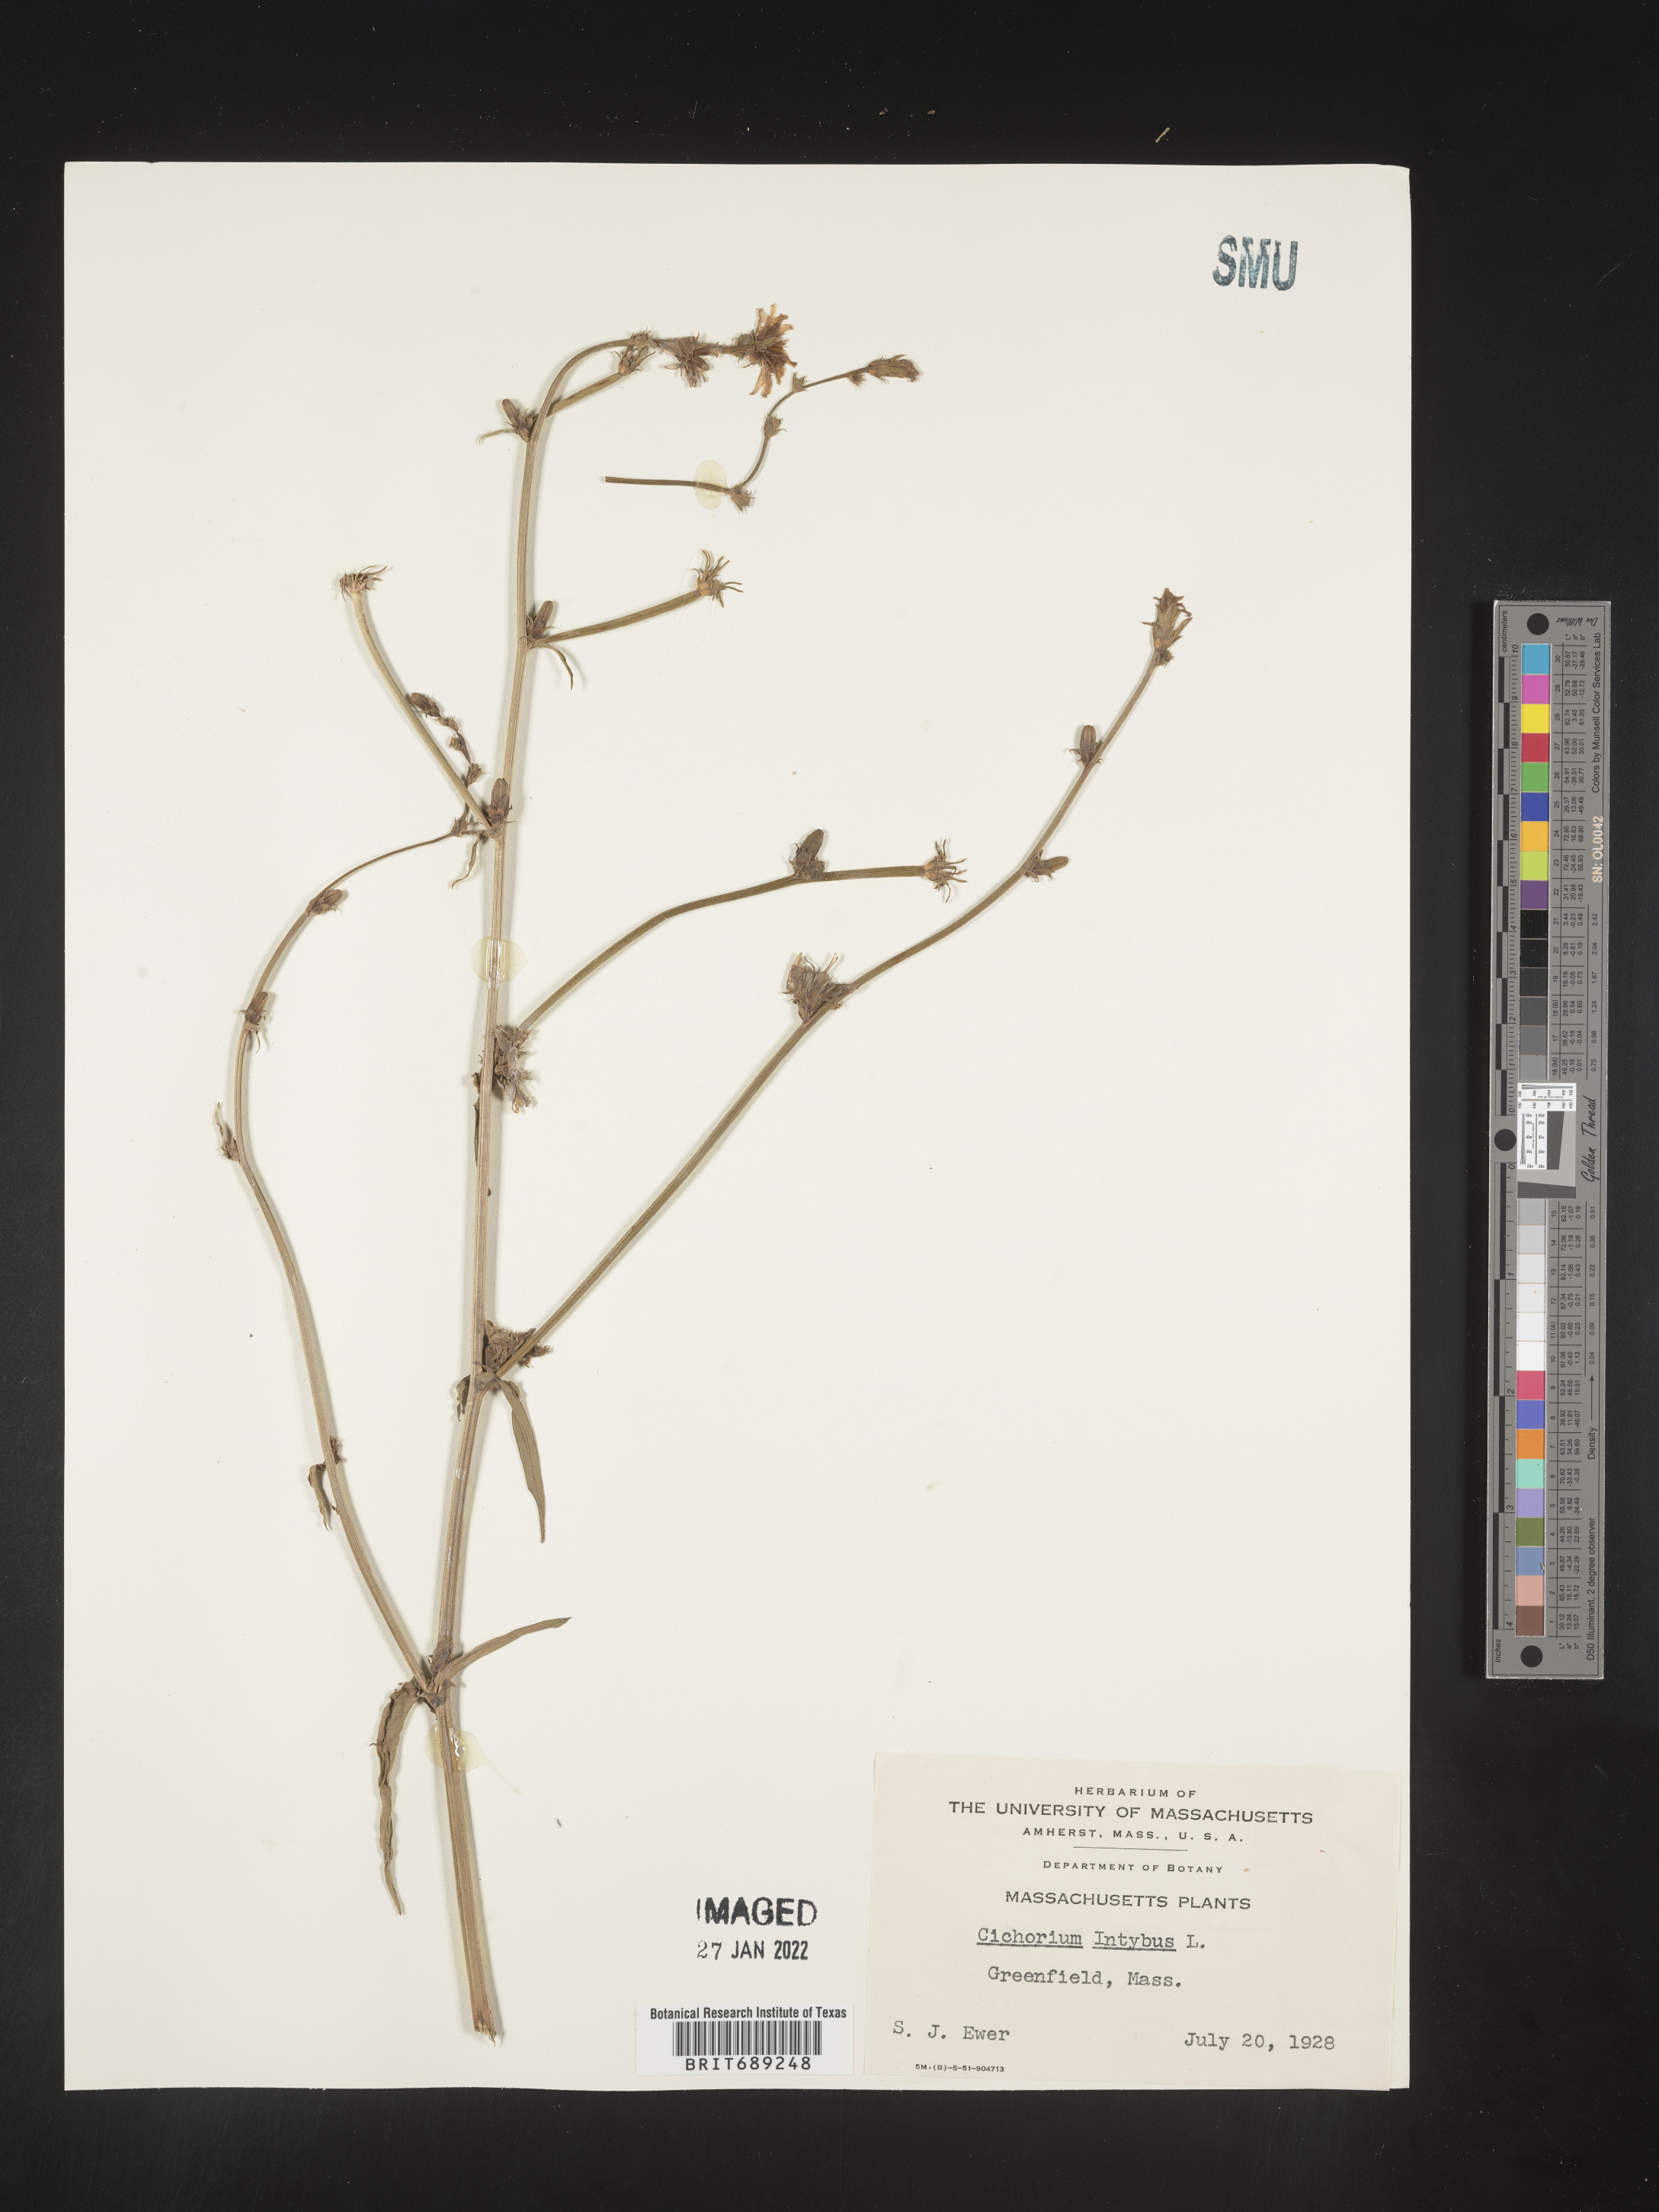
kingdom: Plantae
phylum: Tracheophyta
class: Magnoliopsida
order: Asterales
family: Asteraceae
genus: Cichorium
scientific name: Cichorium intybus
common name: Chicory
